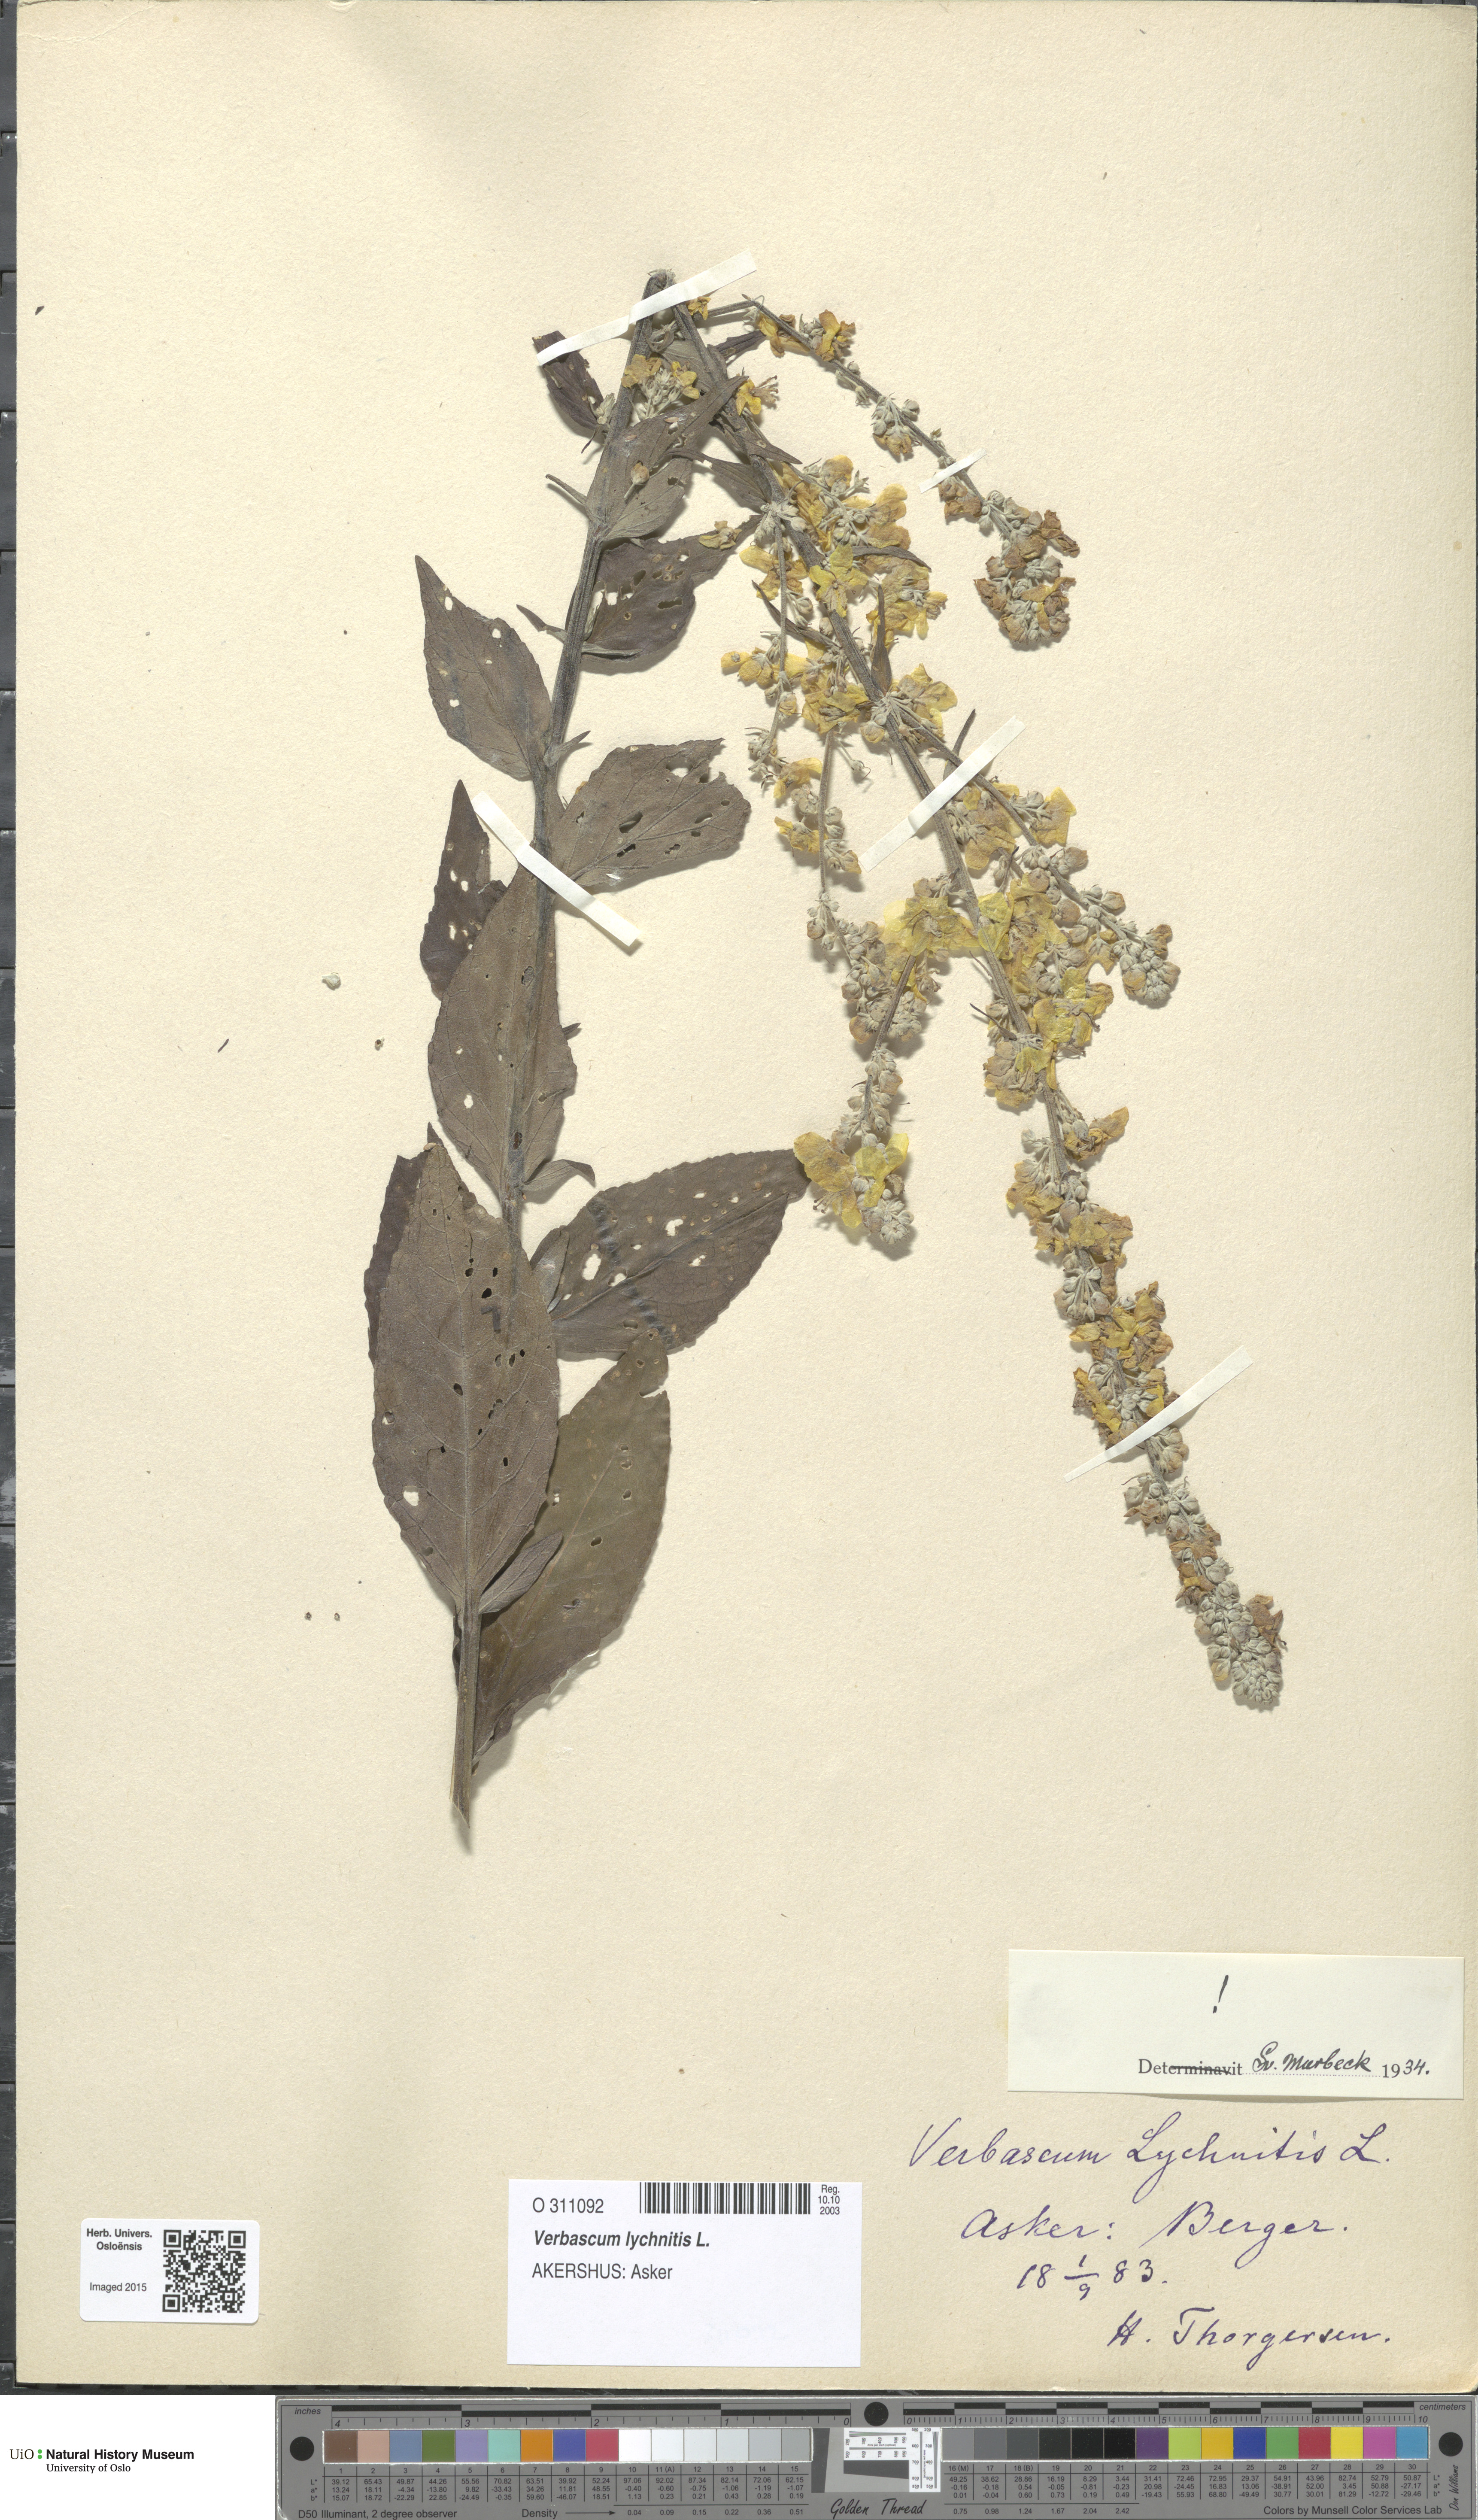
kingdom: Plantae
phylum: Tracheophyta
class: Magnoliopsida
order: Lamiales
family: Scrophulariaceae
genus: Verbascum
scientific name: Verbascum lychnitis
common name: White mullein
